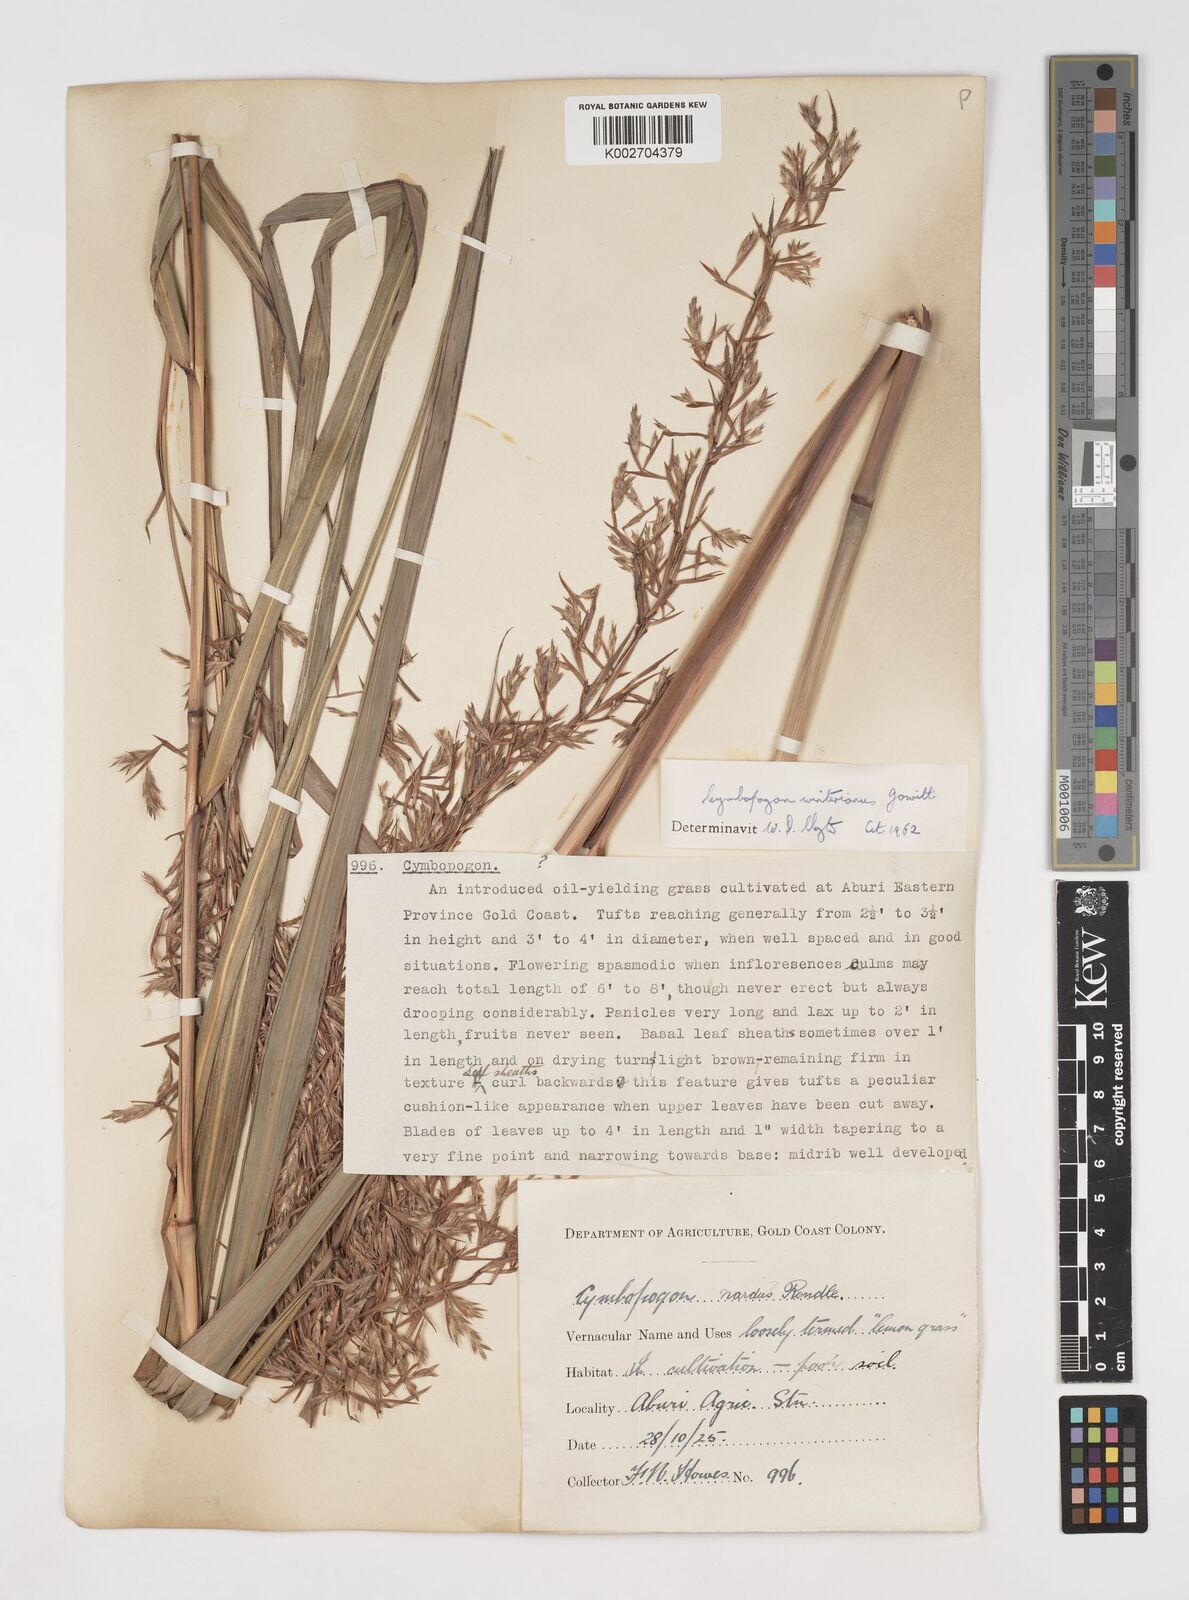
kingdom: Plantae
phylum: Tracheophyta
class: Liliopsida
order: Poales
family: Poaceae
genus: Cymbopogon
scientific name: Cymbopogon winterianus
